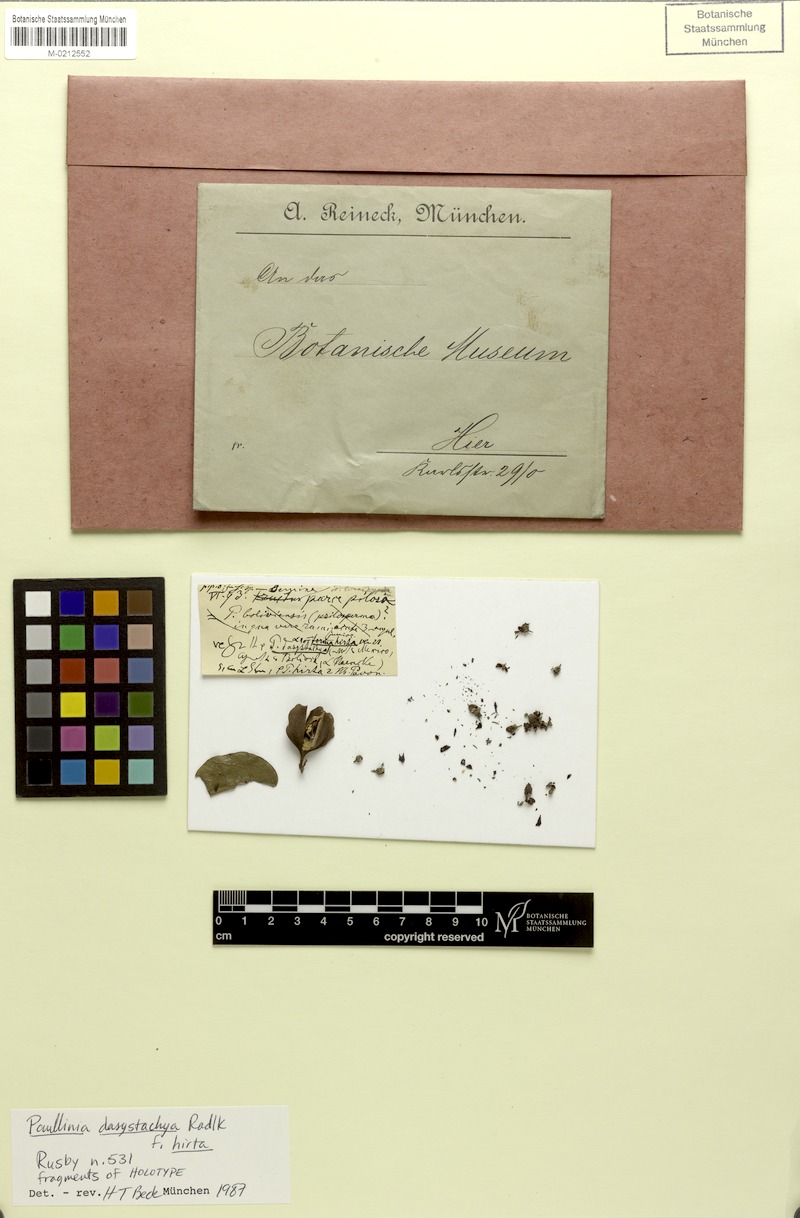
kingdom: Plantae
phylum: Tracheophyta
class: Magnoliopsida
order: Sapindales
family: Sapindaceae
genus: Paullinia
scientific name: Paullinia dasystachya
